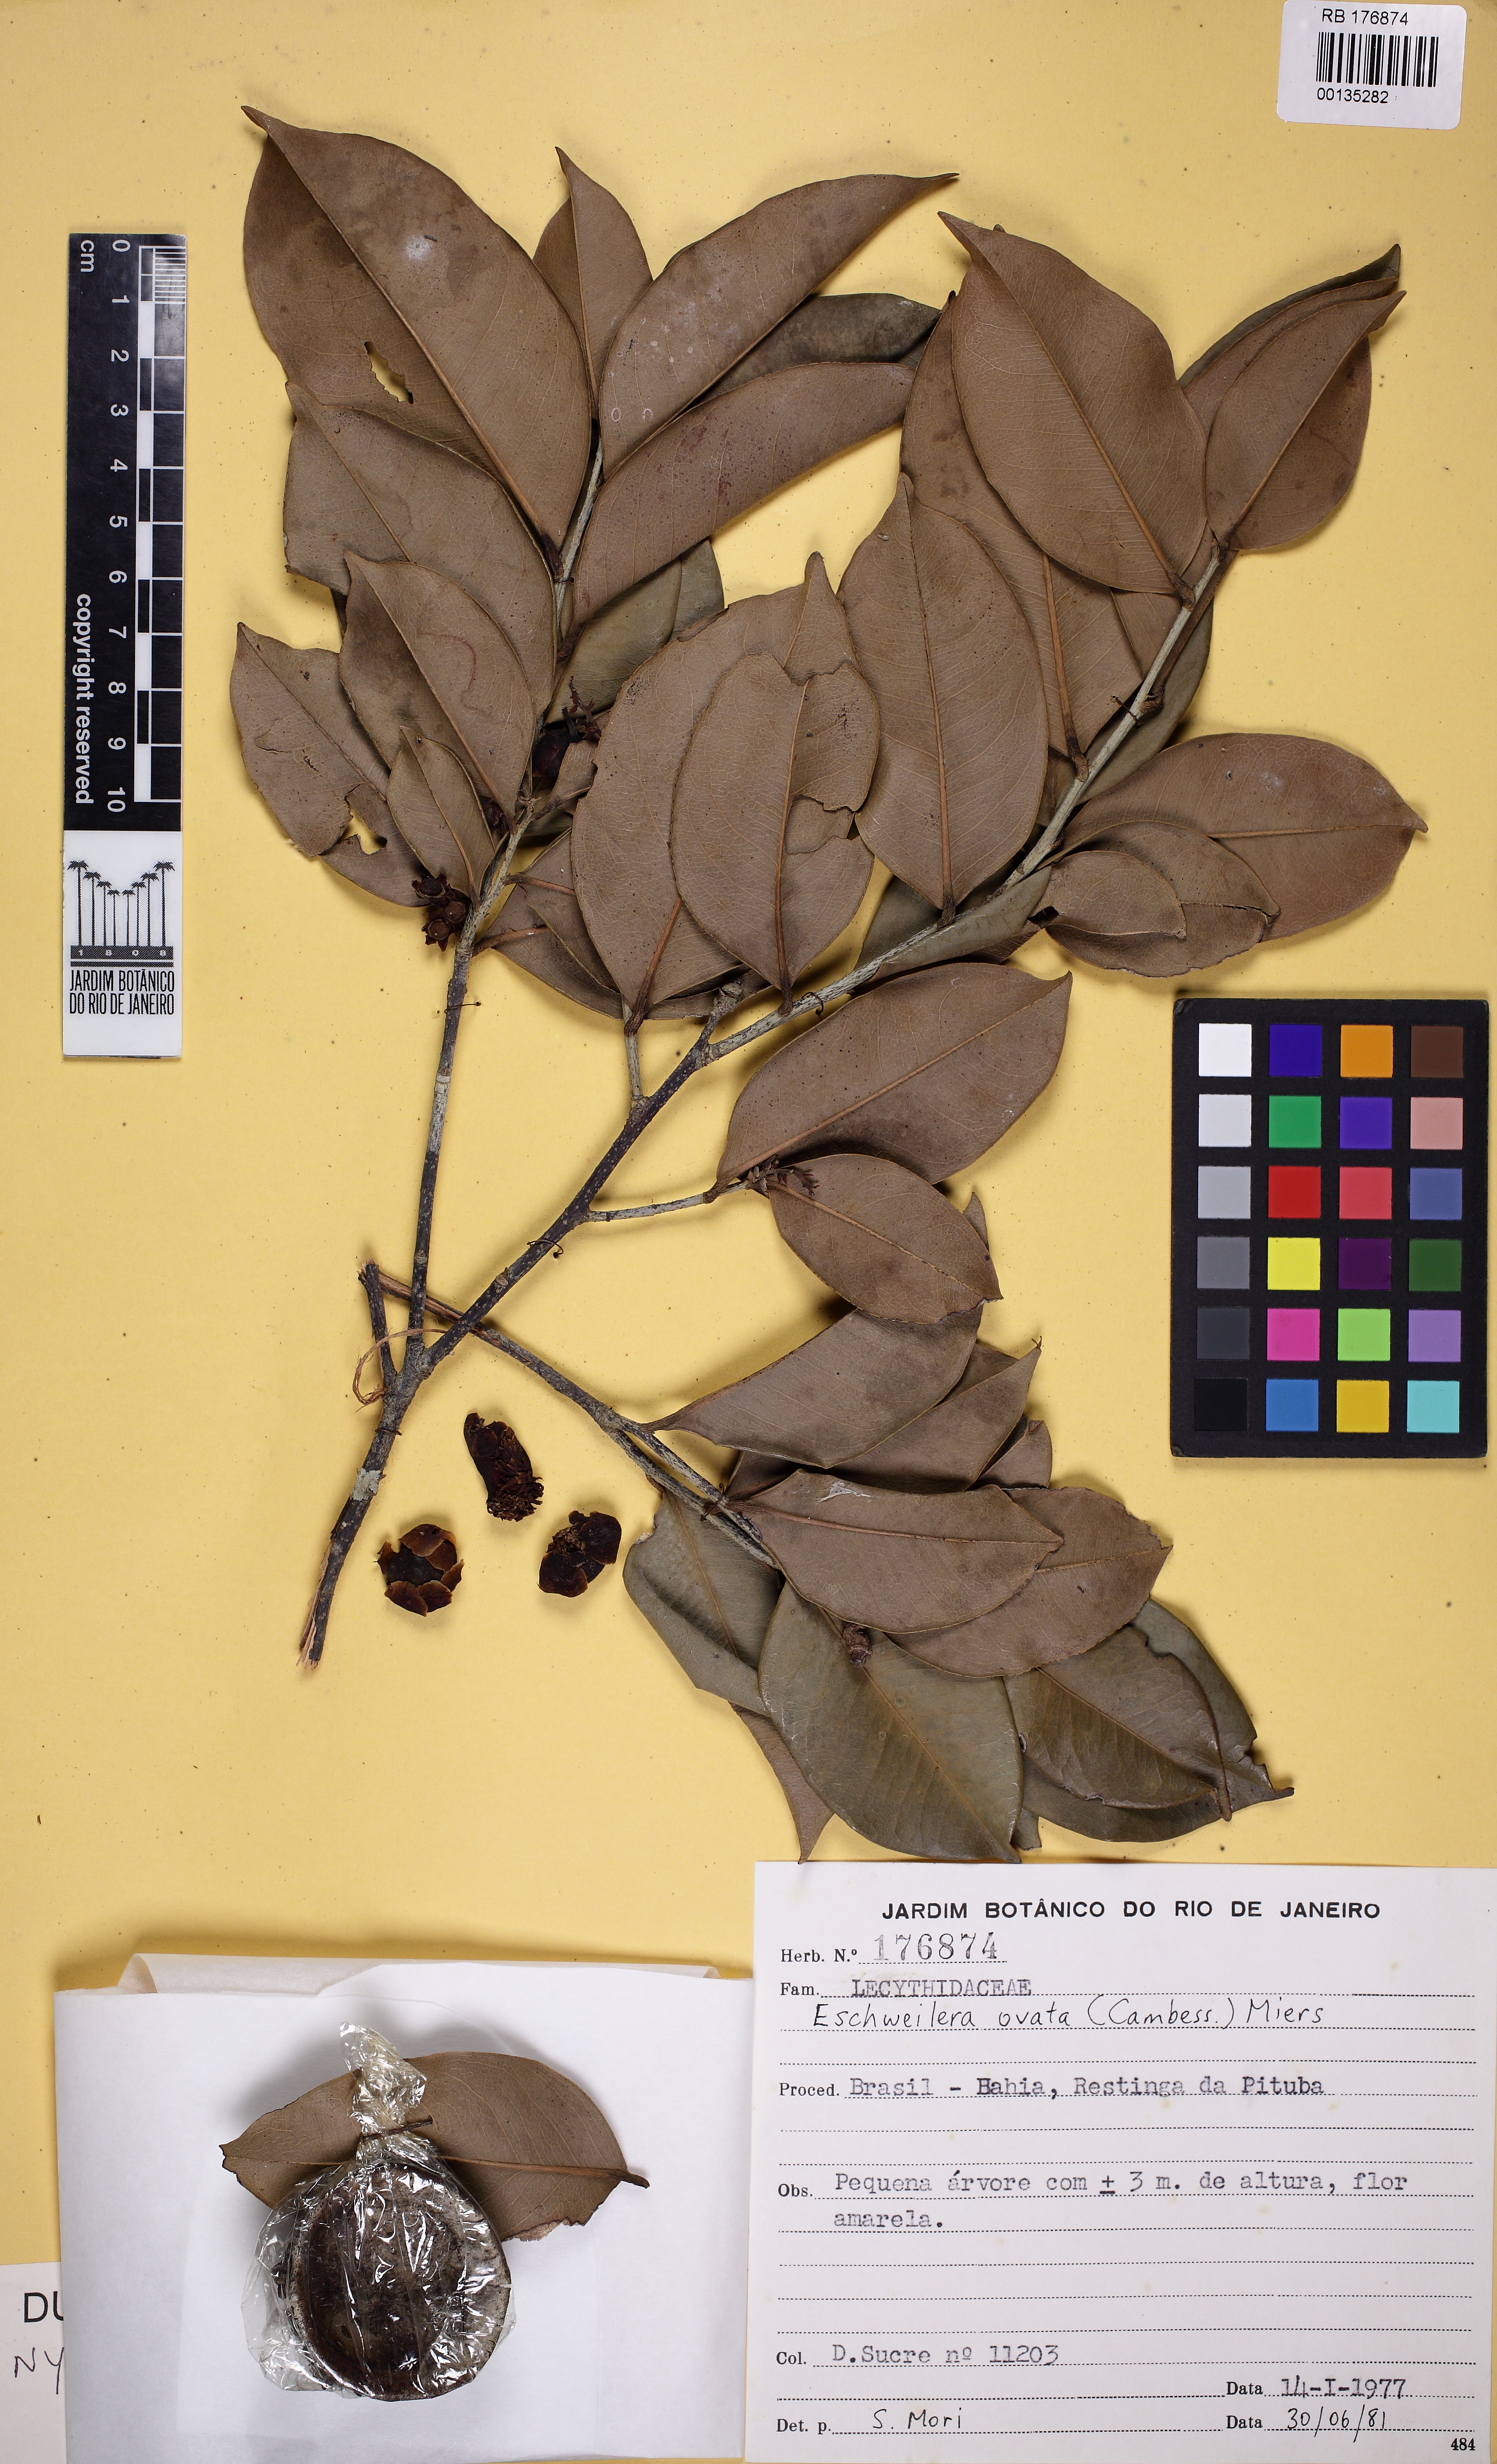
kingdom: Plantae
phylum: Tracheophyta
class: Magnoliopsida
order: Ericales
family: Lecythidaceae
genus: Eschweilera
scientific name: Eschweilera ovata
